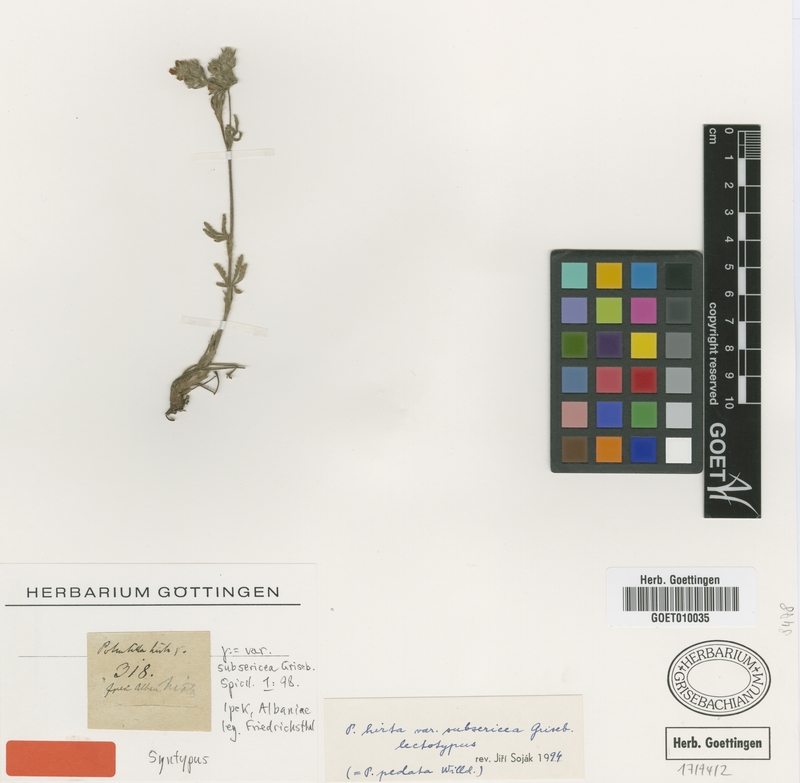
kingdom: Plantae
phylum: Tracheophyta
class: Magnoliopsida
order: Rosales
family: Rosaceae
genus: Potentilla
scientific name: Potentilla pedata
